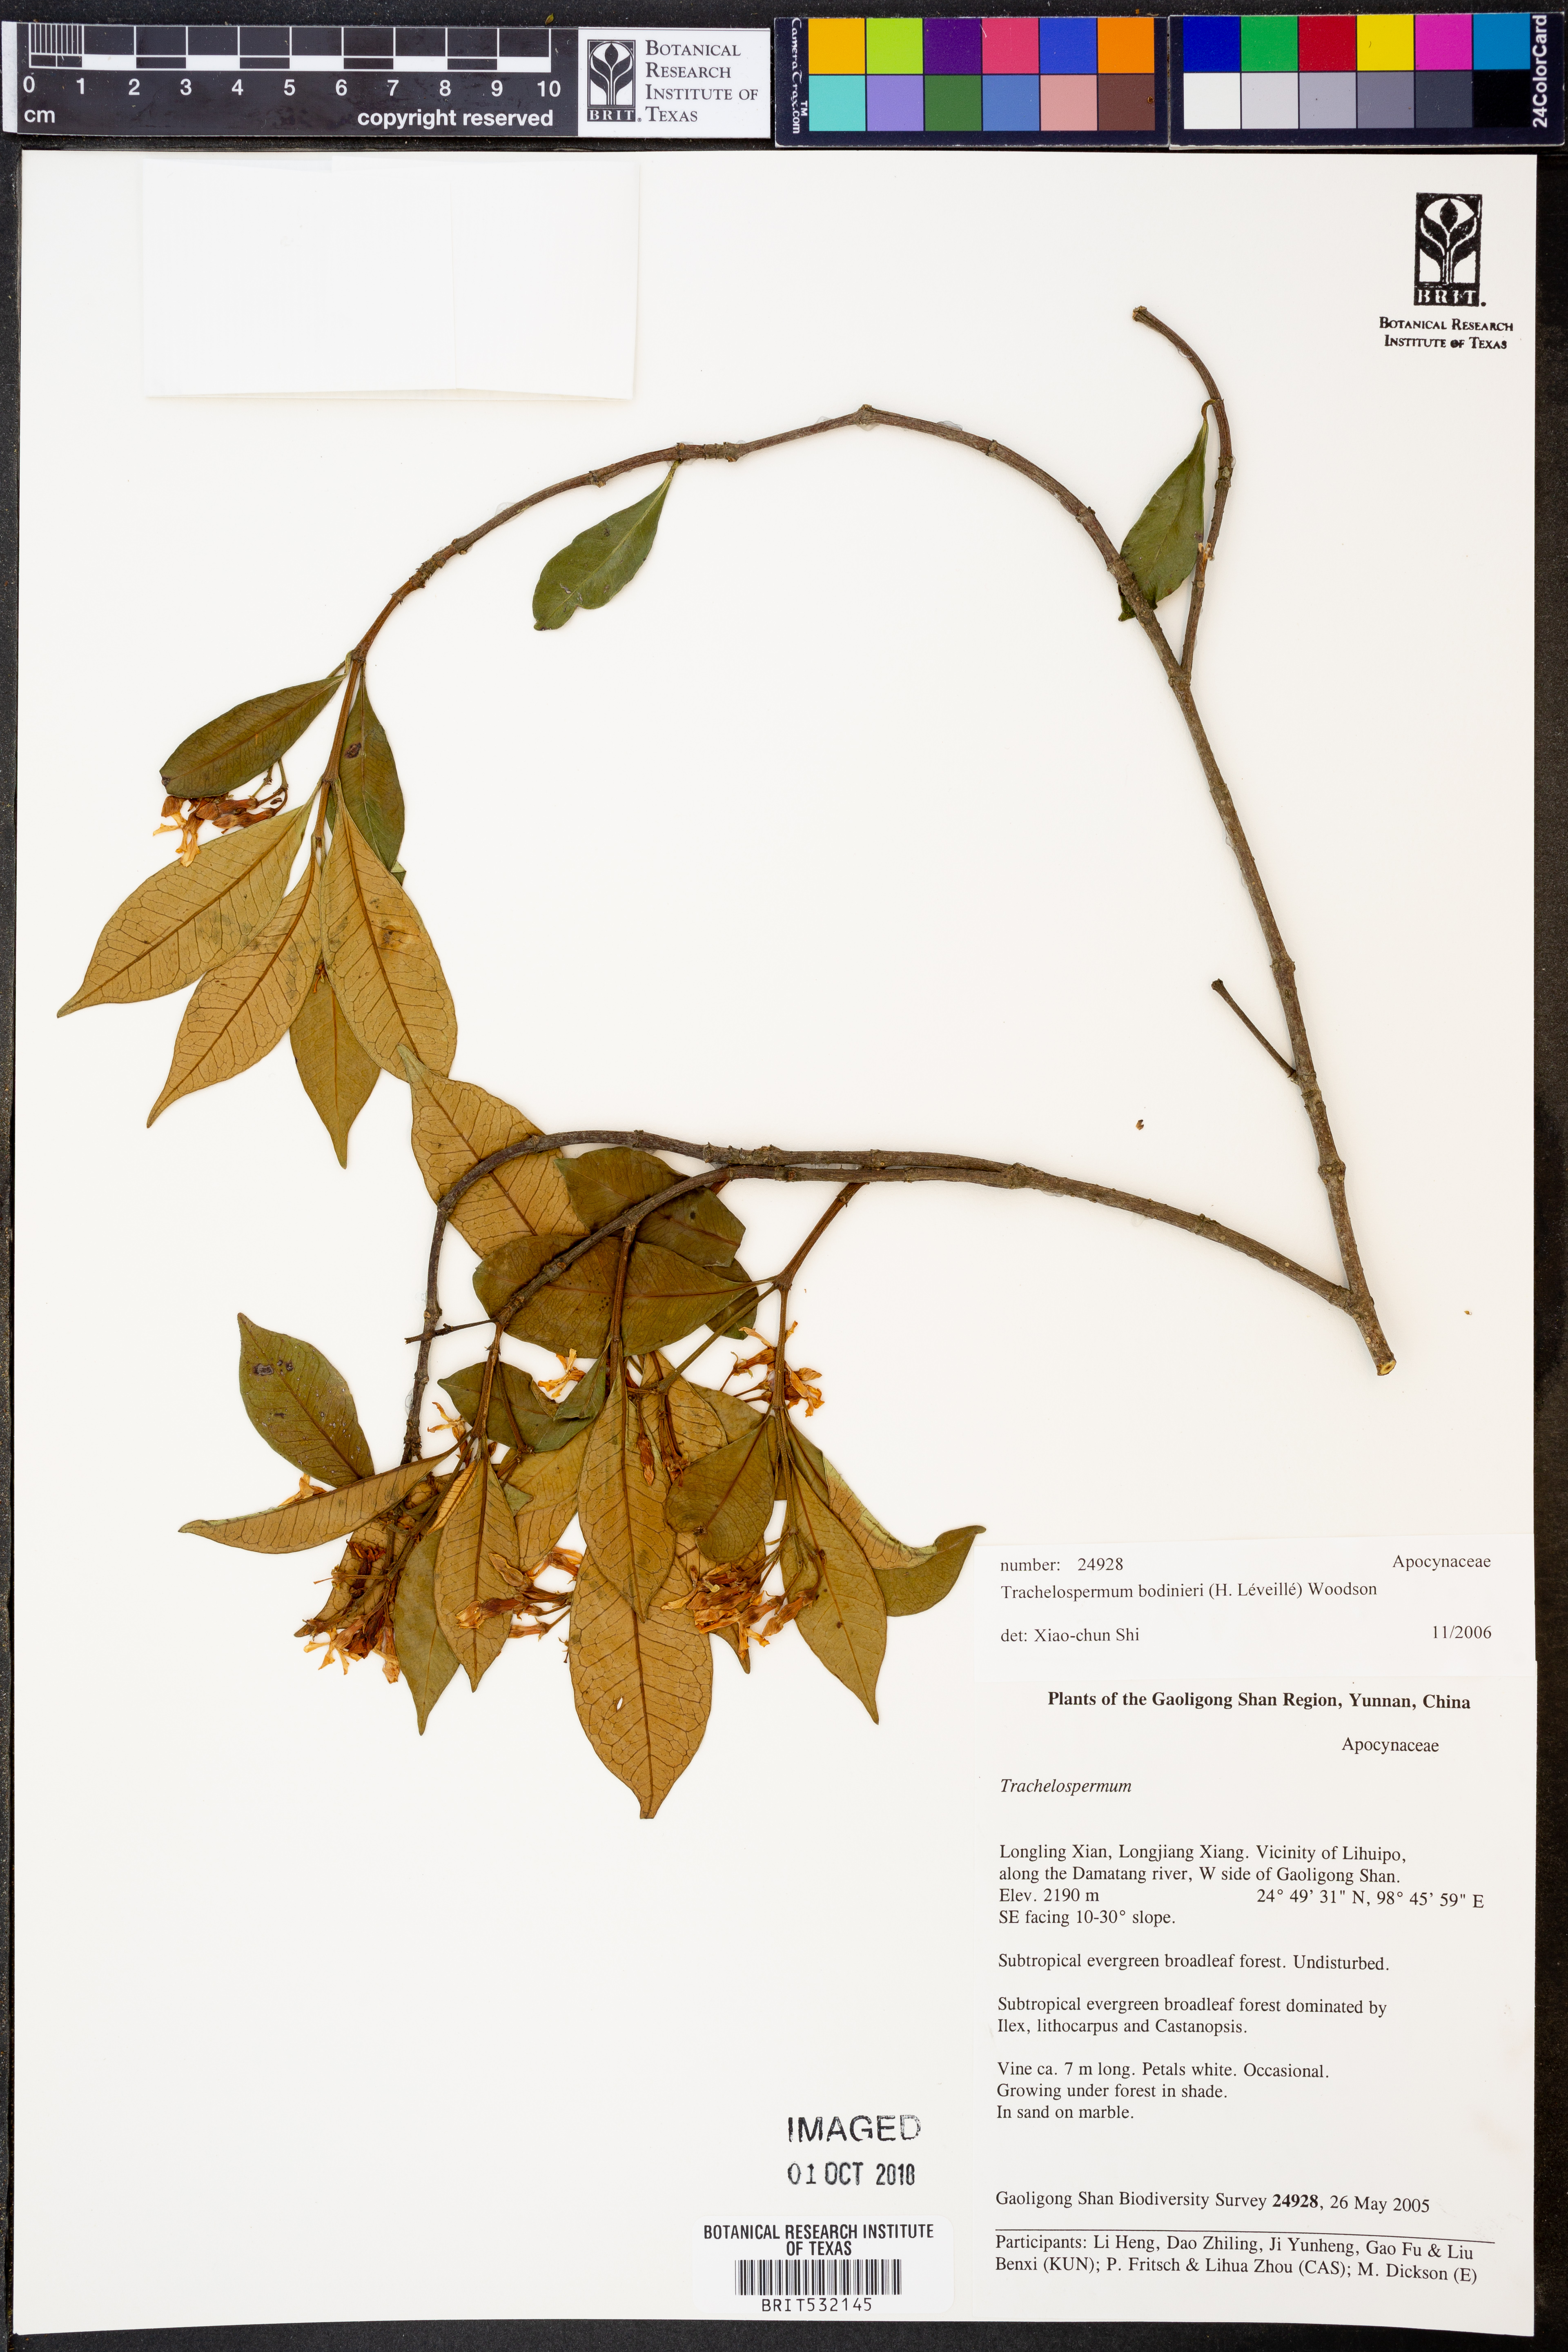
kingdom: Plantae
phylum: Tracheophyta
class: Magnoliopsida
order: Gentianales
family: Apocynaceae
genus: Trachelospermum
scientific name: Trachelospermum bodinieri
